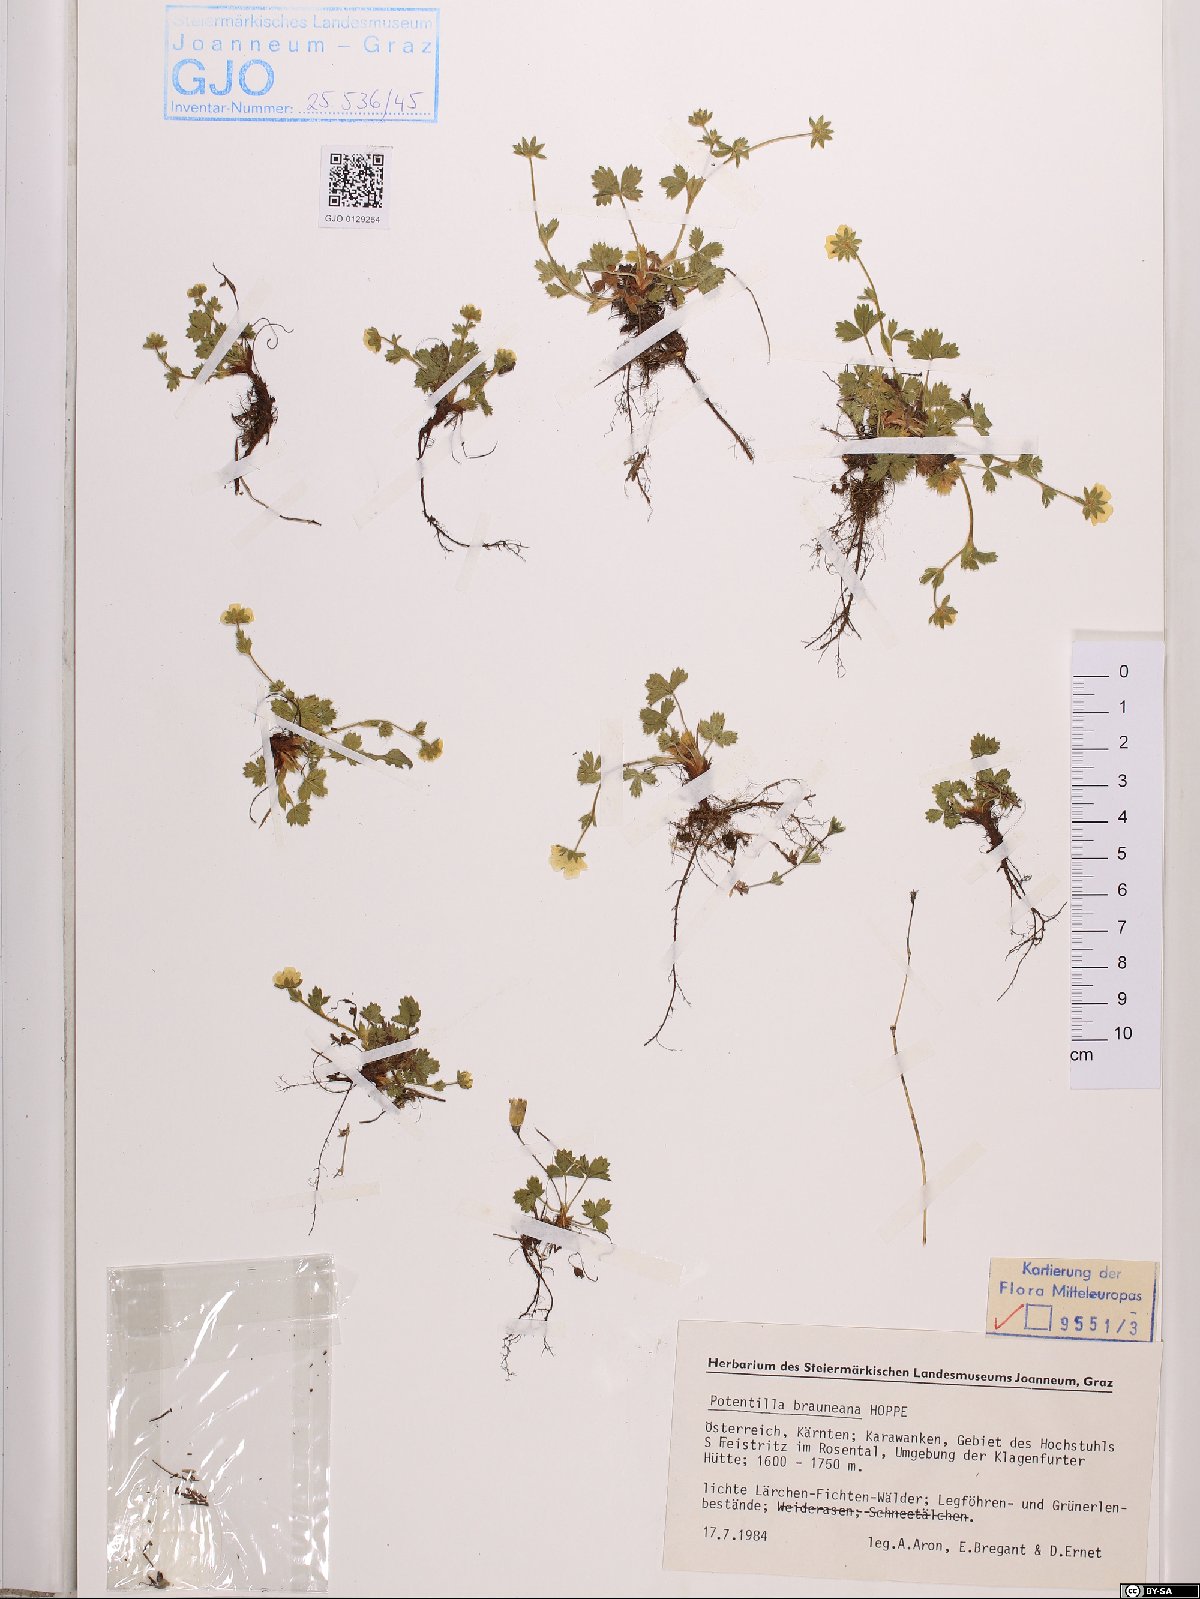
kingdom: Plantae
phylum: Tracheophyta
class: Magnoliopsida
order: Rosales
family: Rosaceae
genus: Potentilla
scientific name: Potentilla brauneana
